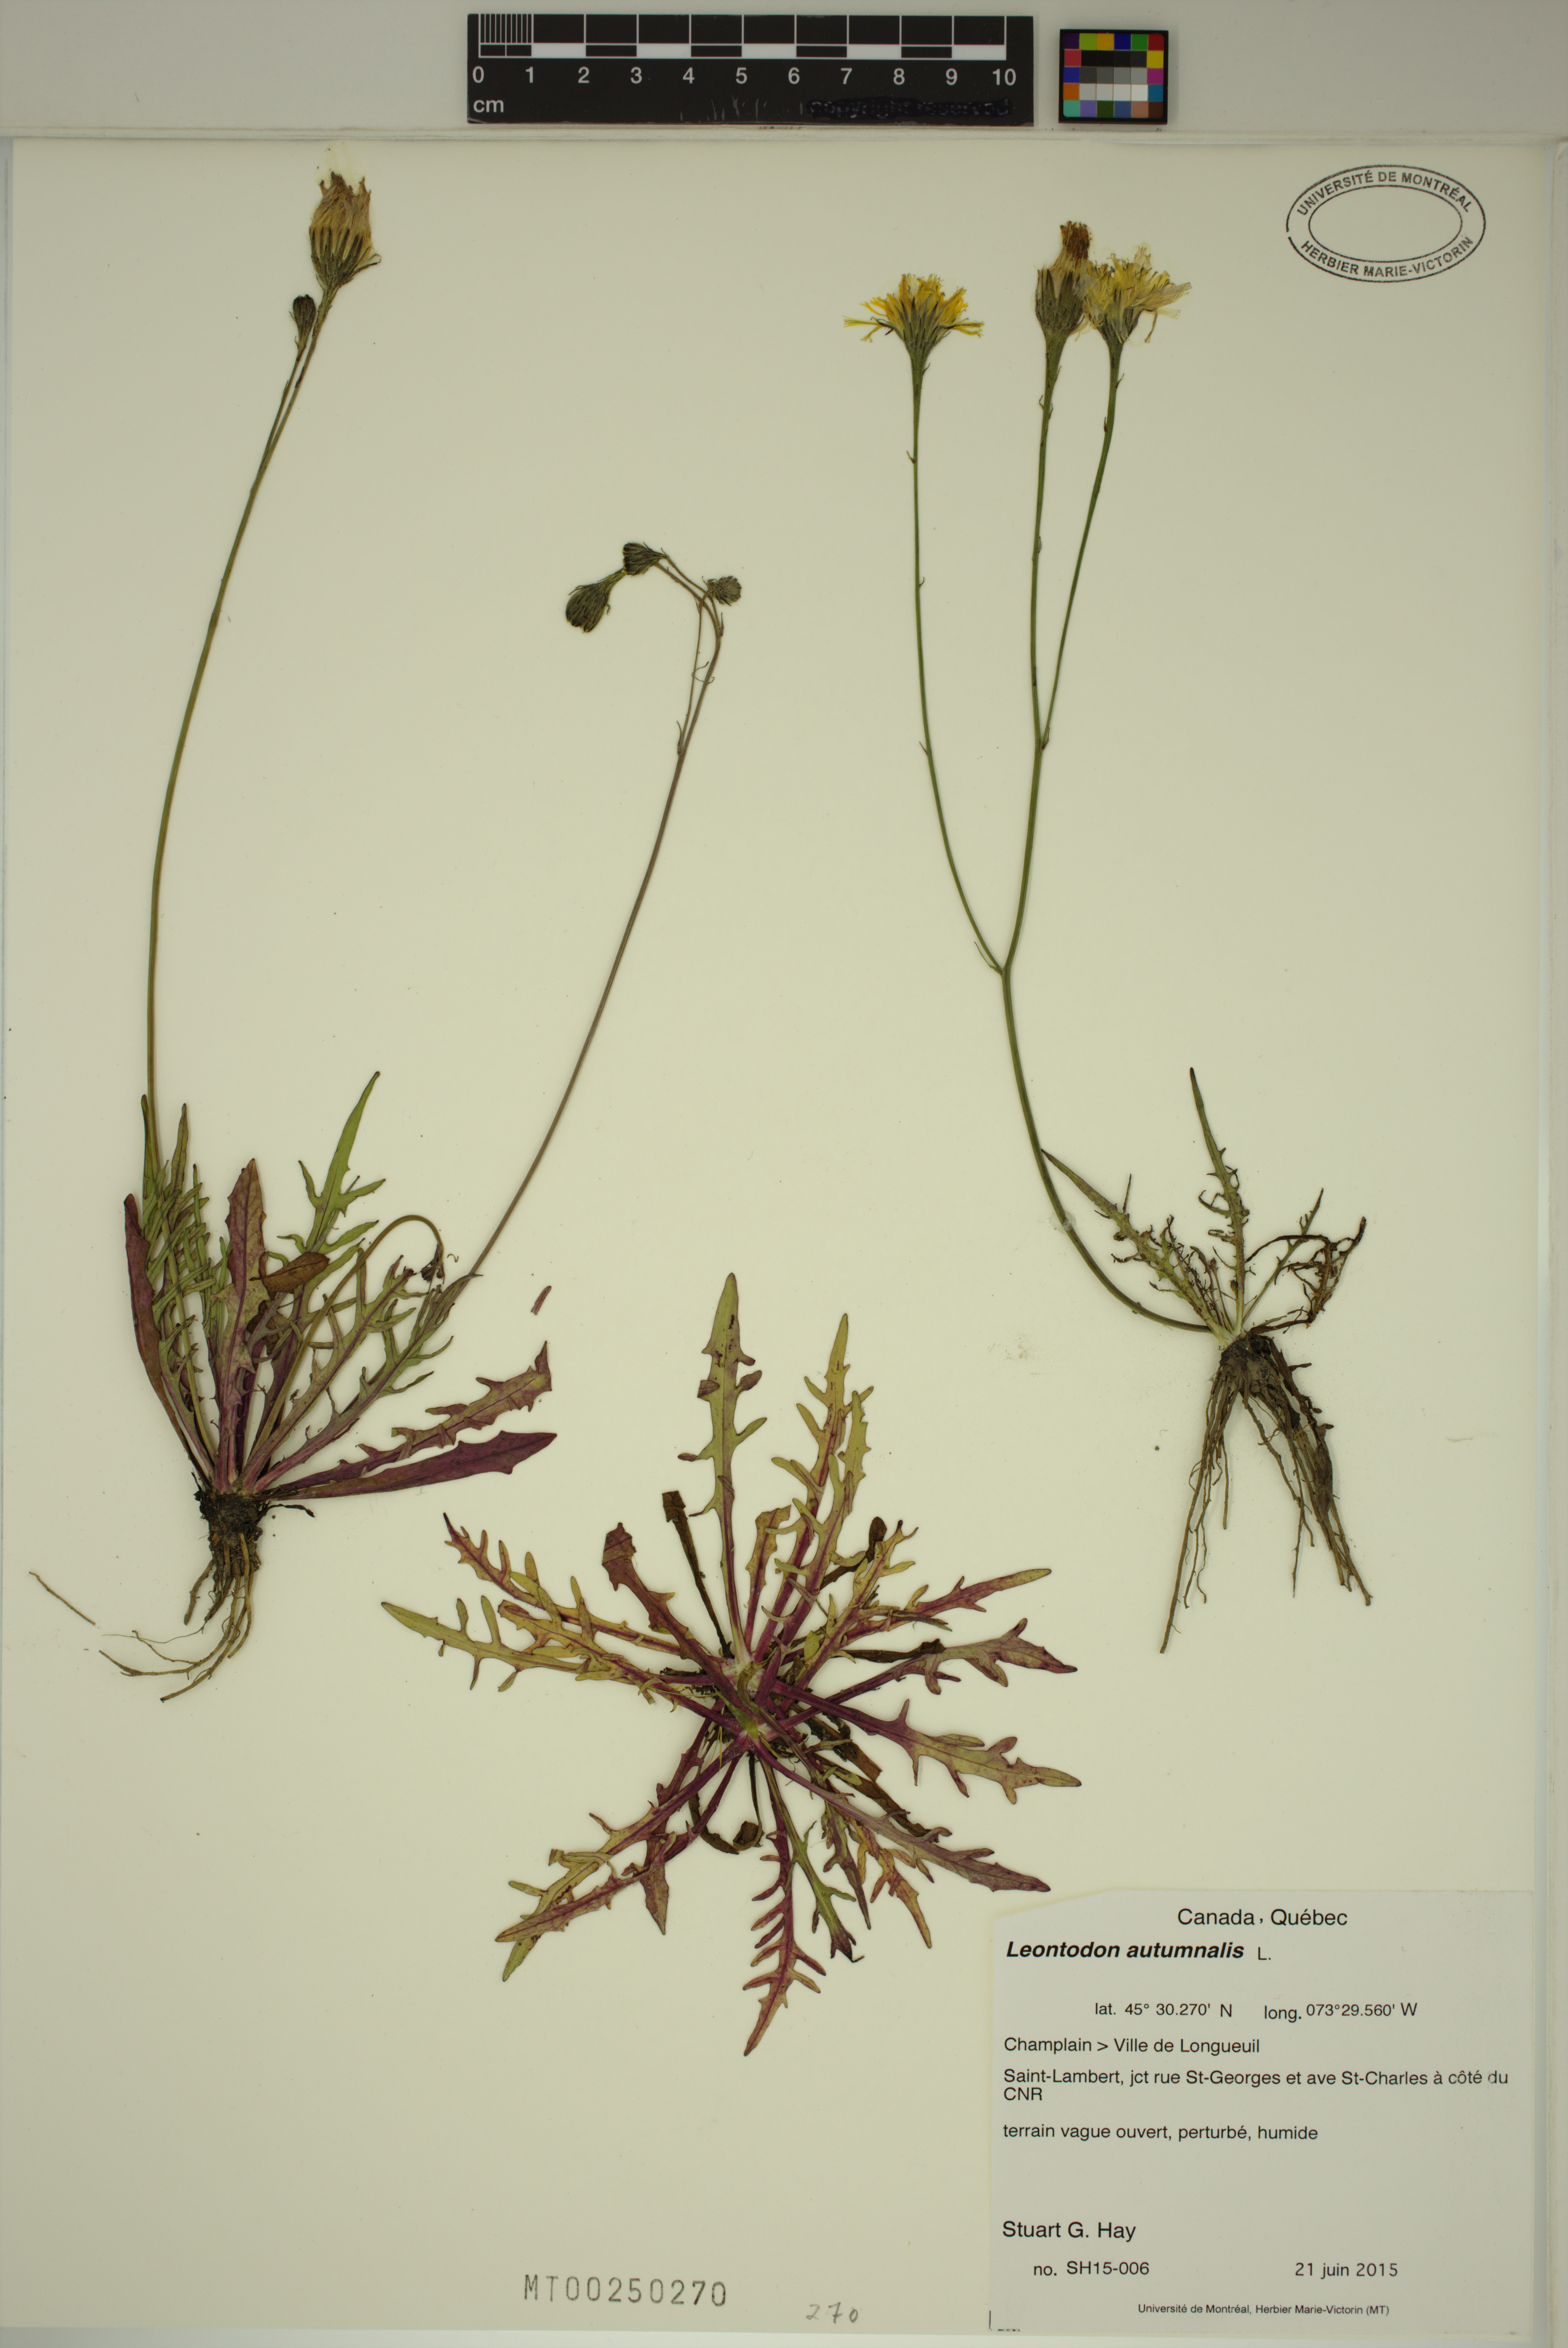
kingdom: Plantae
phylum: Tracheophyta
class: Magnoliopsida
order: Asterales
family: Asteraceae
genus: Scorzoneroides
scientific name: Scorzoneroides autumnalis
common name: Autumn hawkbit
